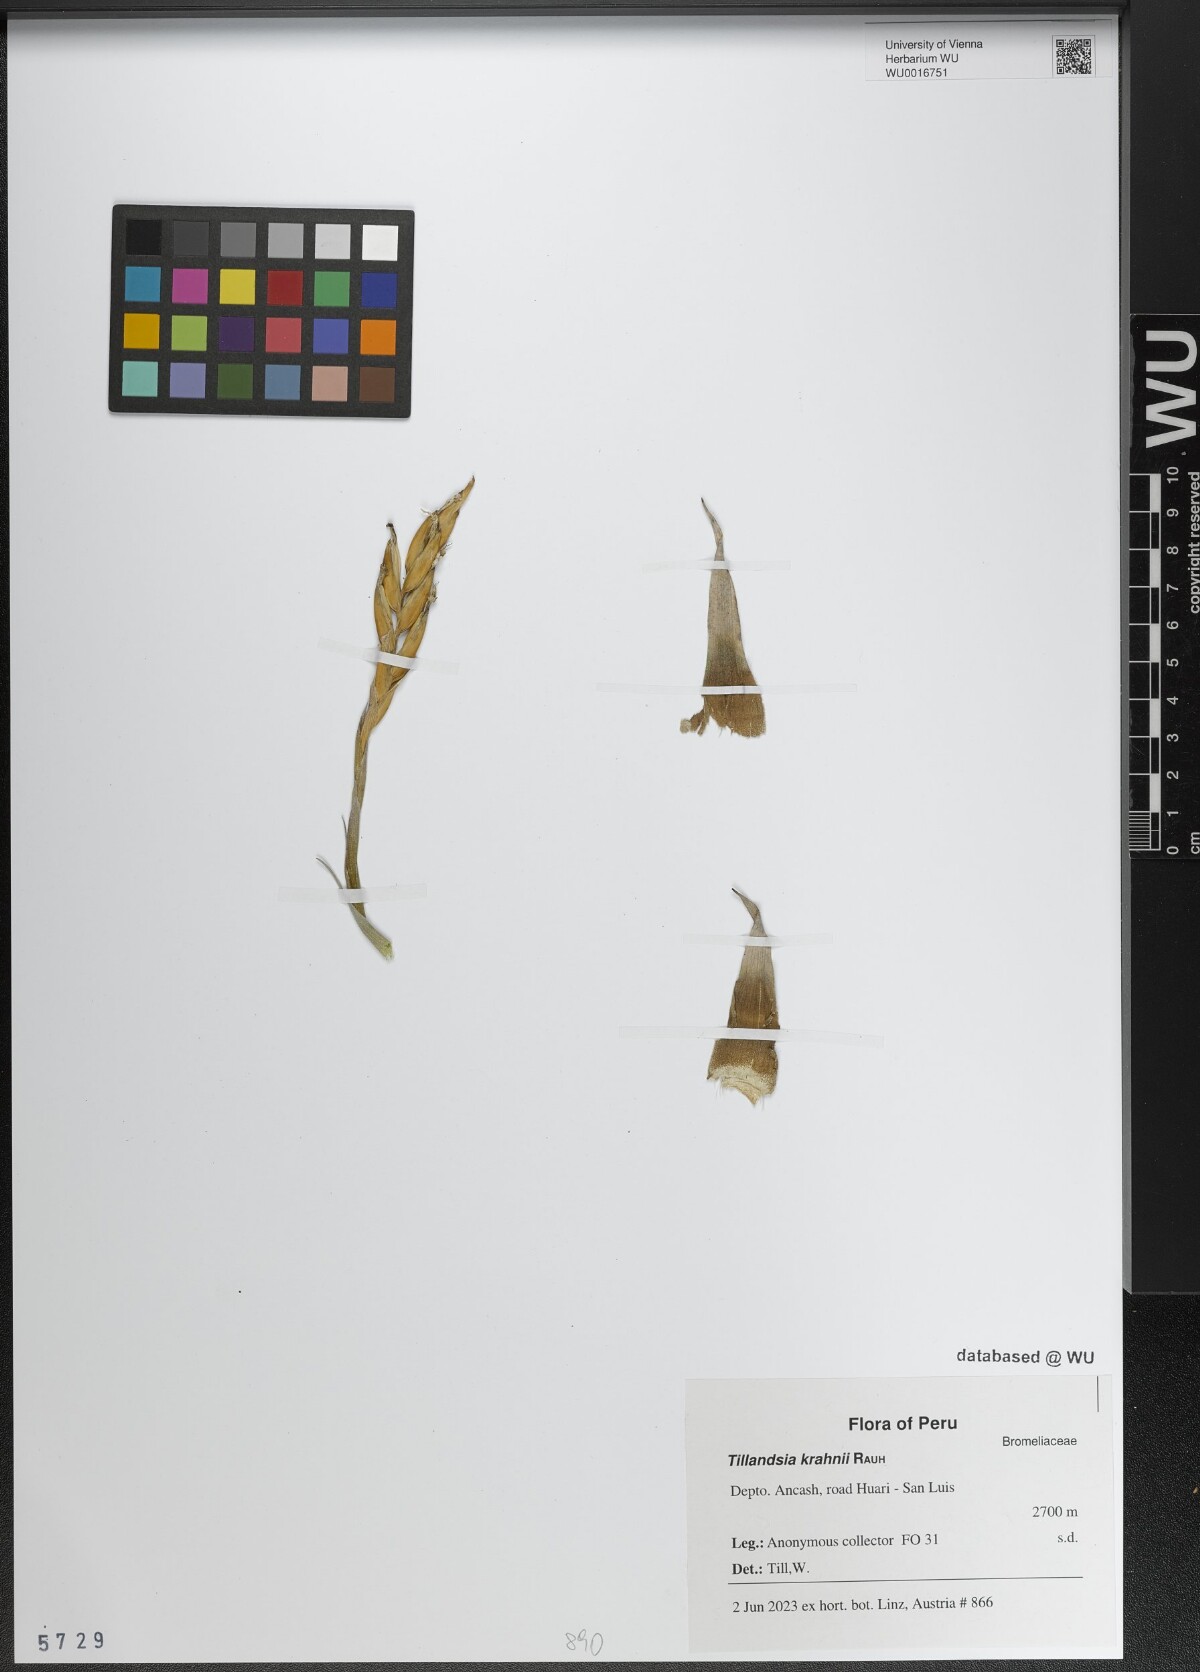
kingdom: Plantae
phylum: Tracheophyta
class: Liliopsida
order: Poales
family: Bromeliaceae
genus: Tillandsia
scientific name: Tillandsia krahnii
